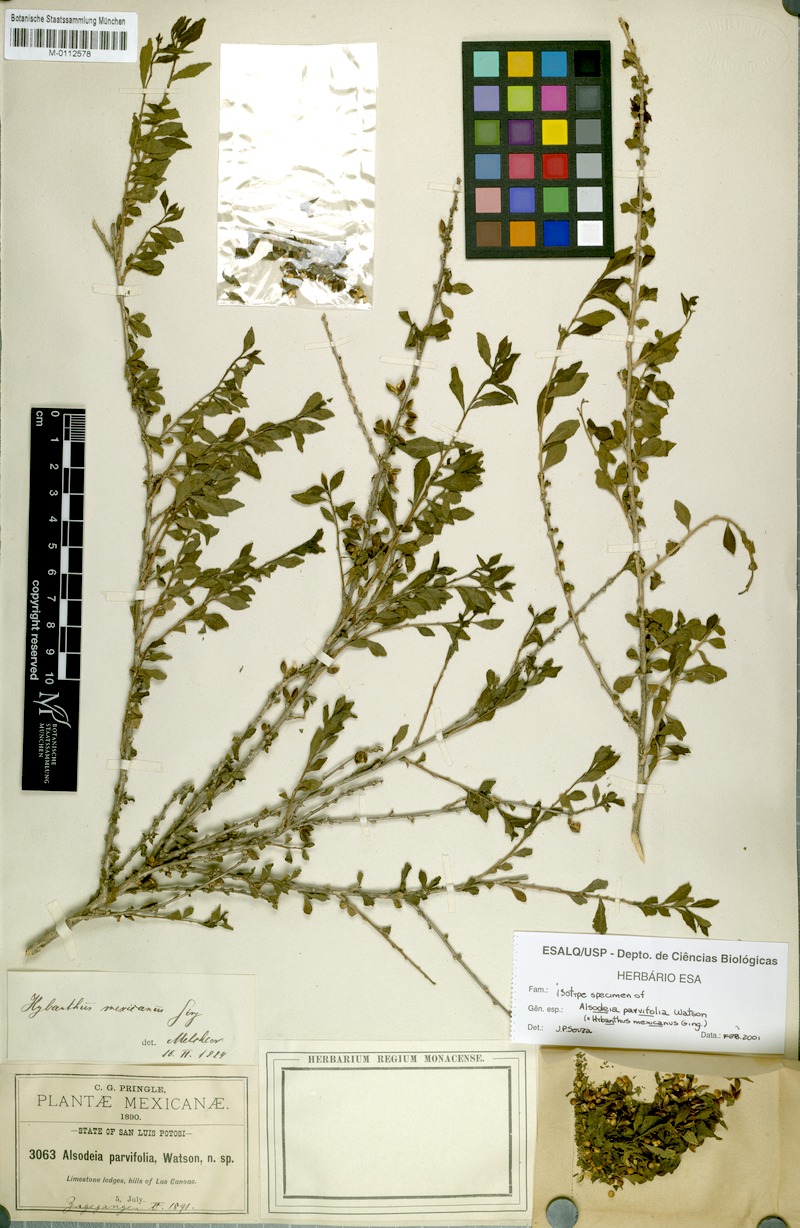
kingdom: Plantae
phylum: Tracheophyta
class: Magnoliopsida
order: Malpighiales
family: Violaceae
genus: Ixchelia
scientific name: Ixchelia mexicana
